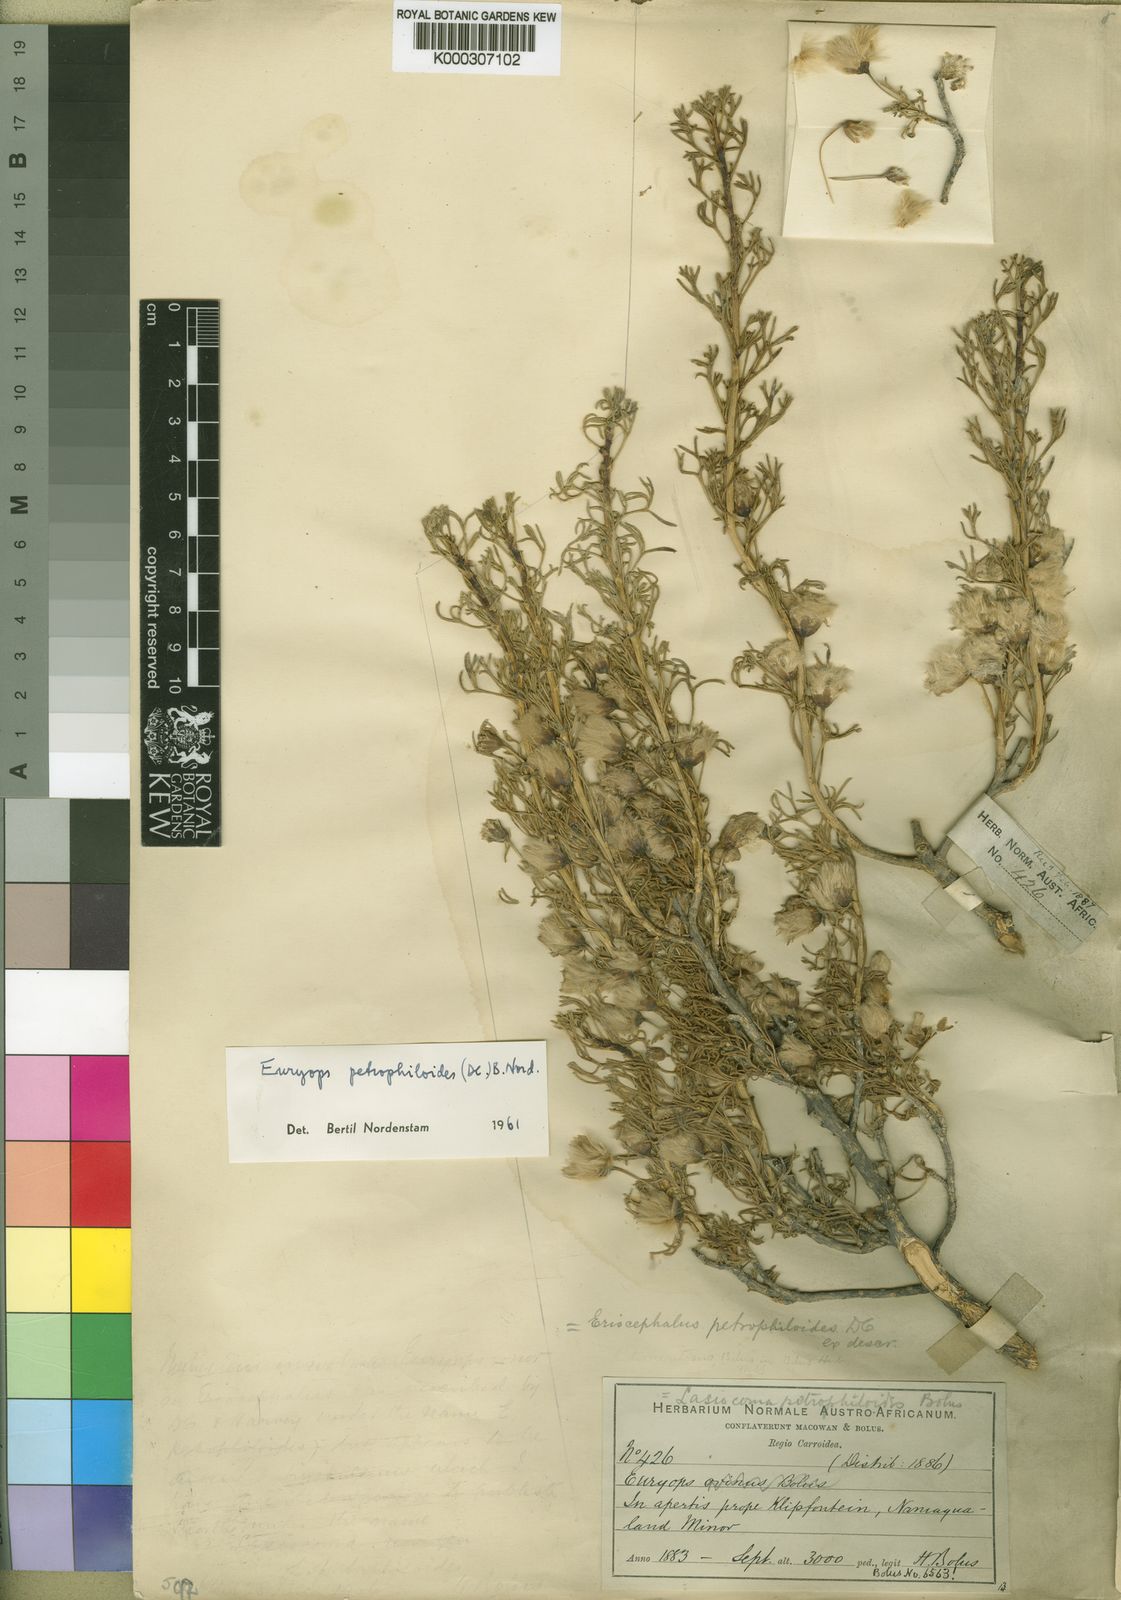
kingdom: Plantae
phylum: Tracheophyta
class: Magnoliopsida
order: Asterales
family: Asteraceae
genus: Euryops
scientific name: Euryops multifidus
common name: Hawk's eye
